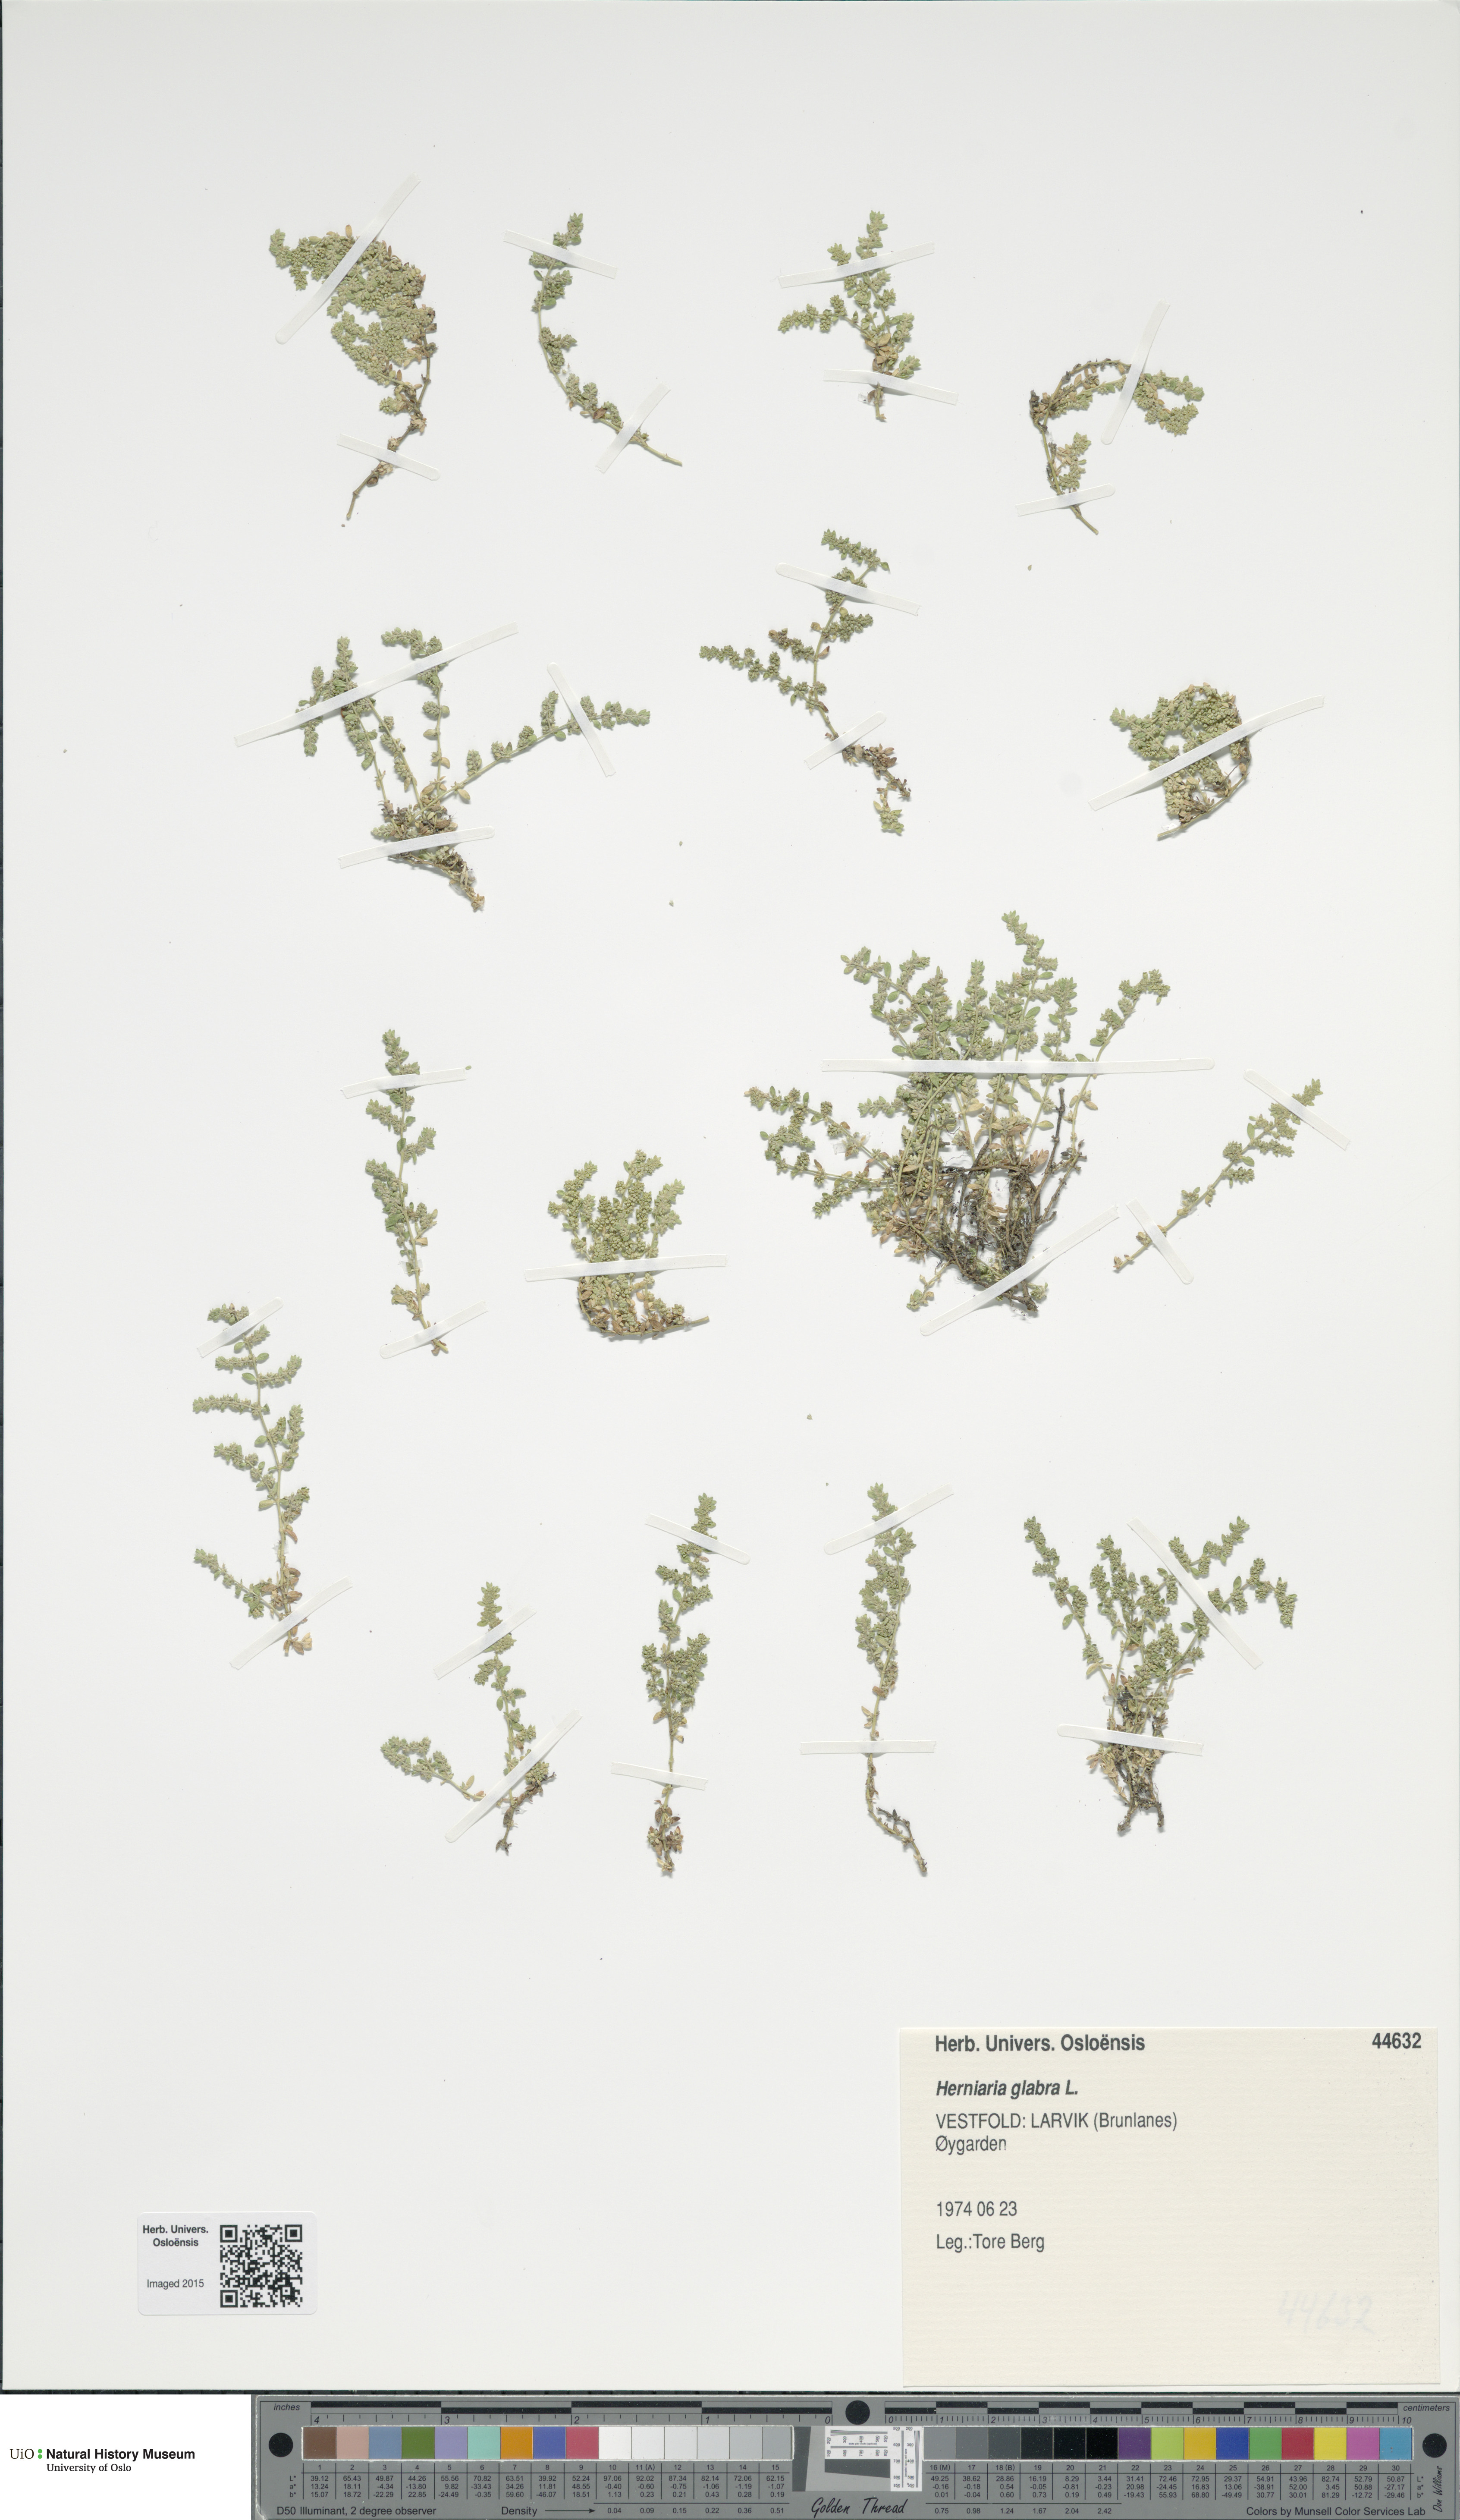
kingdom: Plantae
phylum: Tracheophyta
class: Magnoliopsida
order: Caryophyllales
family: Caryophyllaceae
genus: Herniaria
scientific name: Herniaria glabra
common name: Smooth rupturewort
